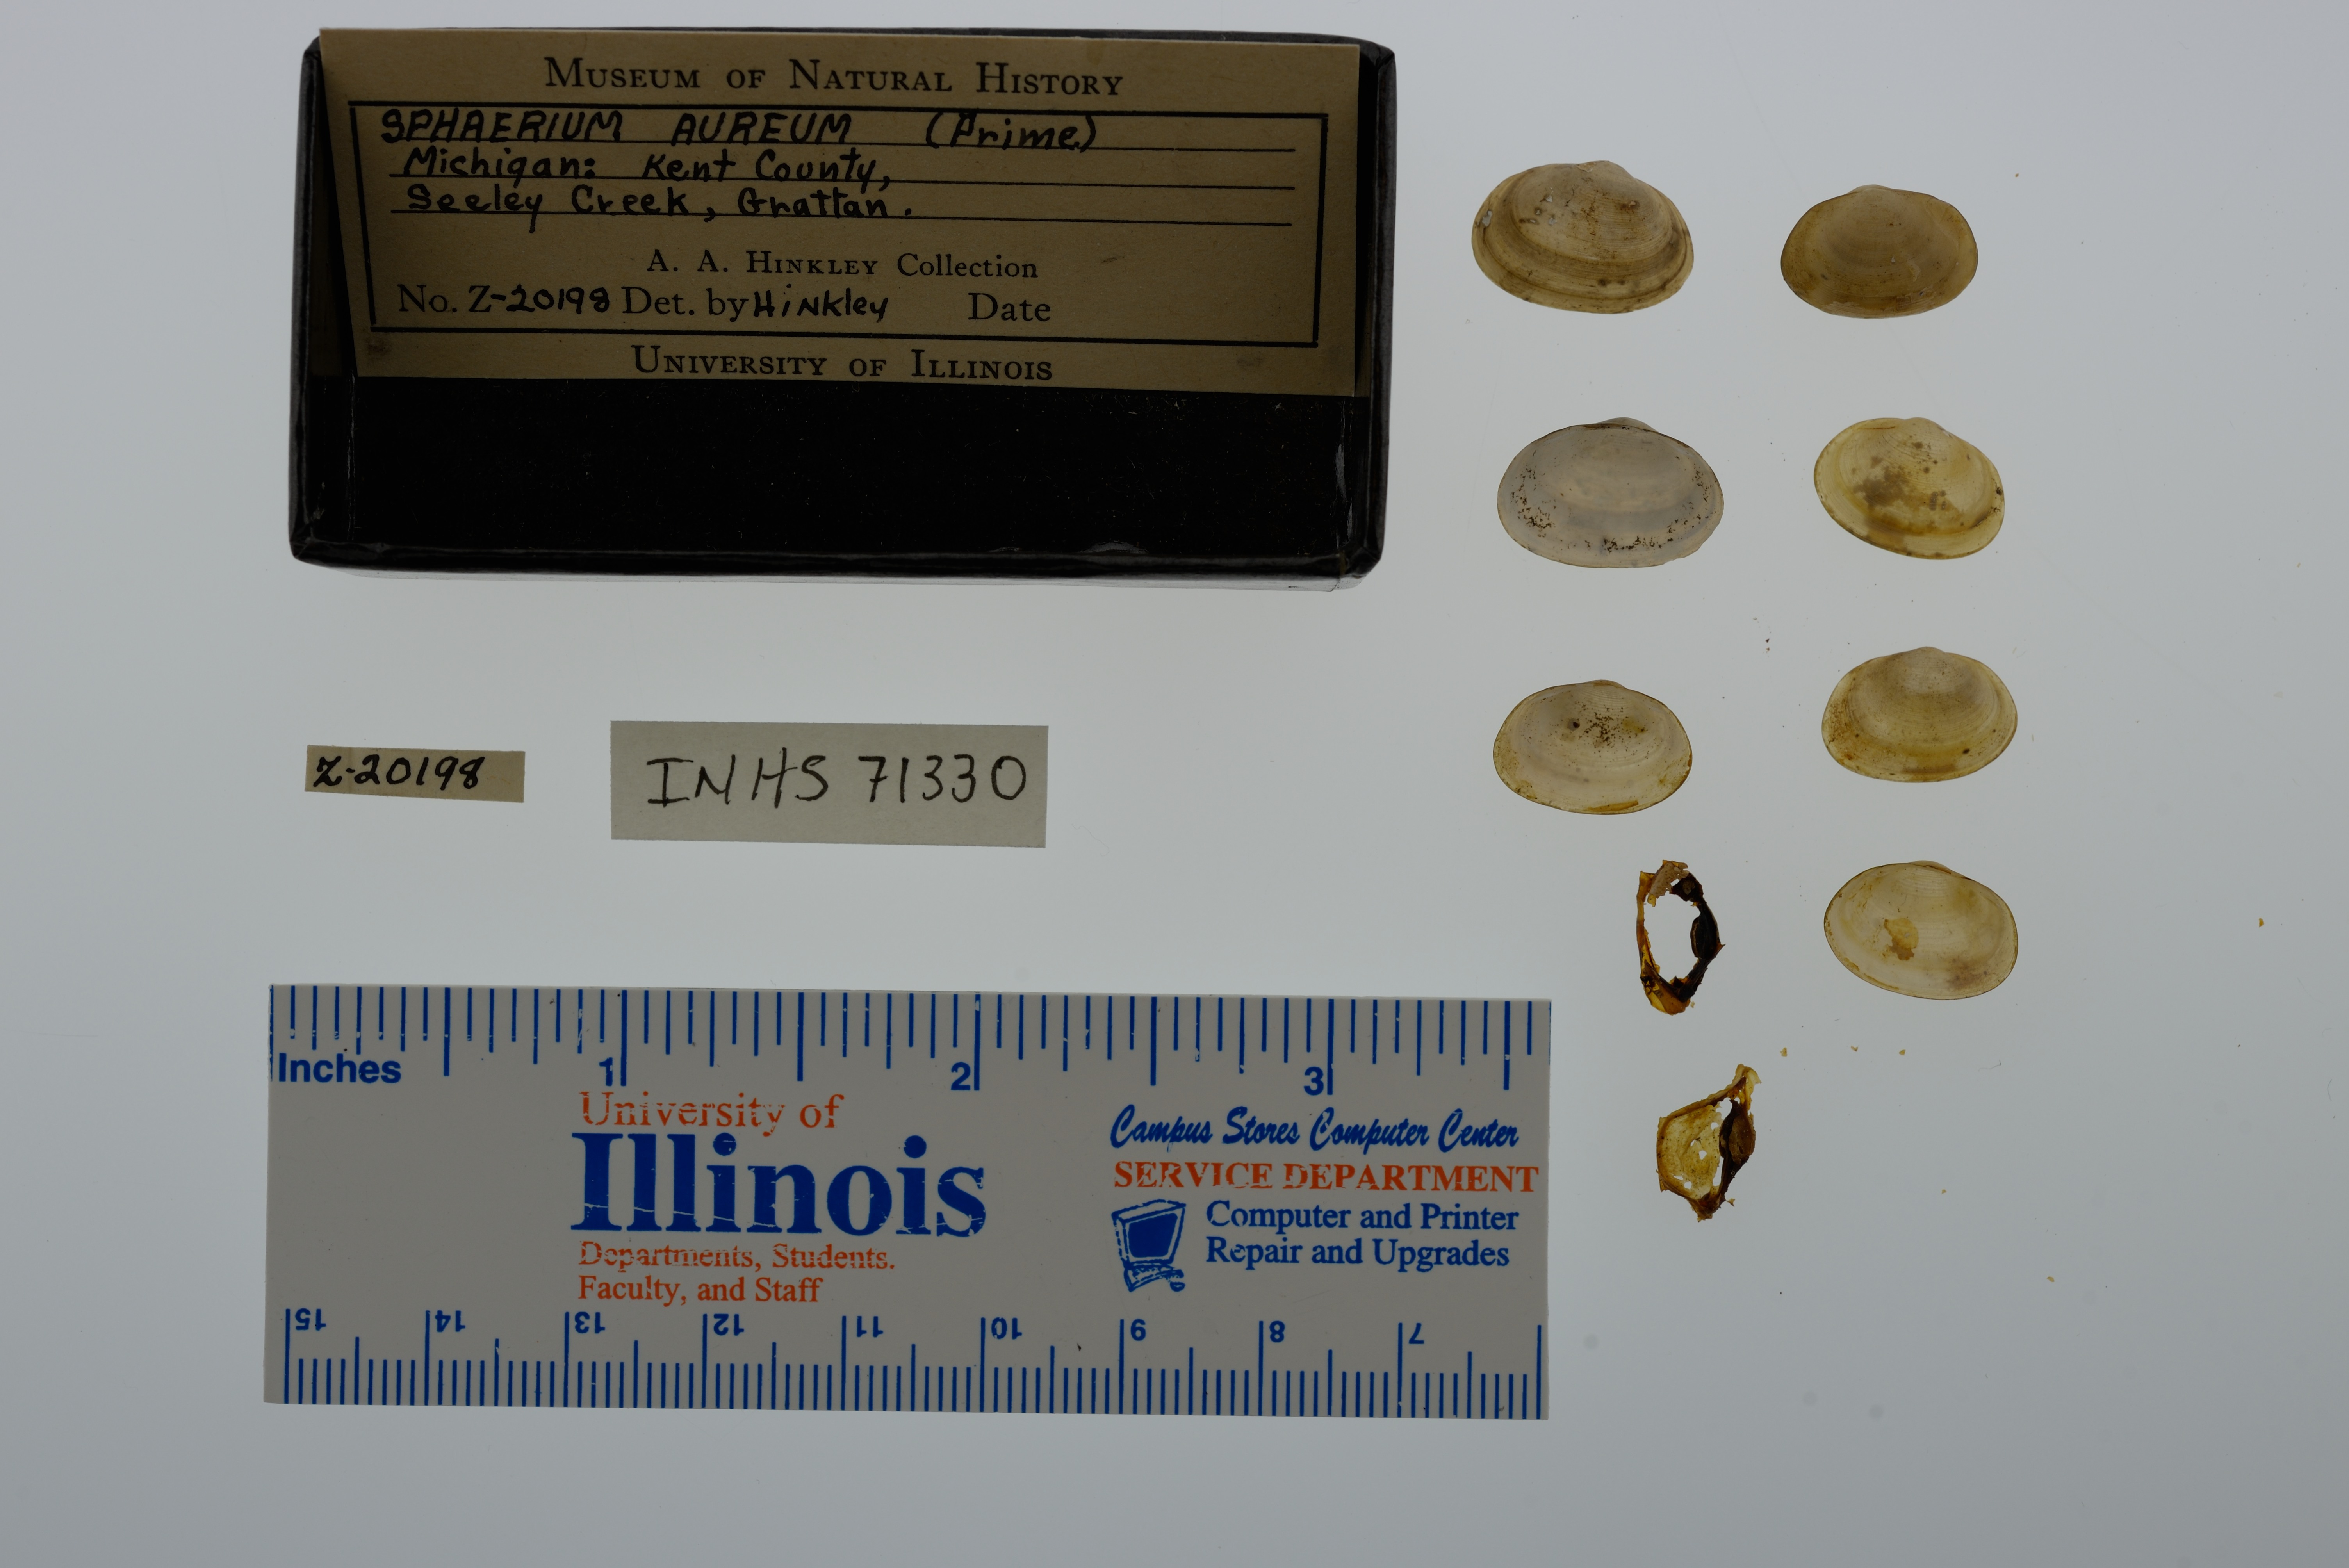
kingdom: Animalia
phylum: Mollusca
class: Bivalvia
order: Sphaeriida
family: Sphaeriidae
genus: Sphaerium
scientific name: Sphaerium striatinum
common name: Striated fingernailclam
